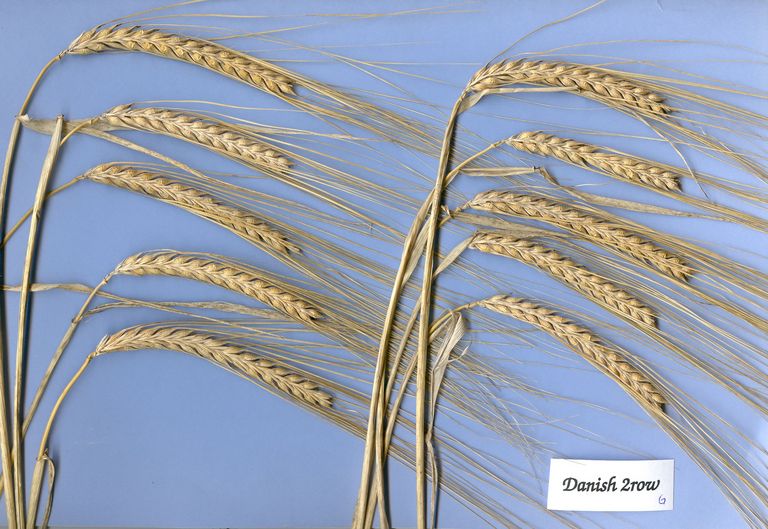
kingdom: Plantae
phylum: Tracheophyta
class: Liliopsida
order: Poales
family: Poaceae
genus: Hordeum
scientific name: Hordeum vulgare
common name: Common barley
